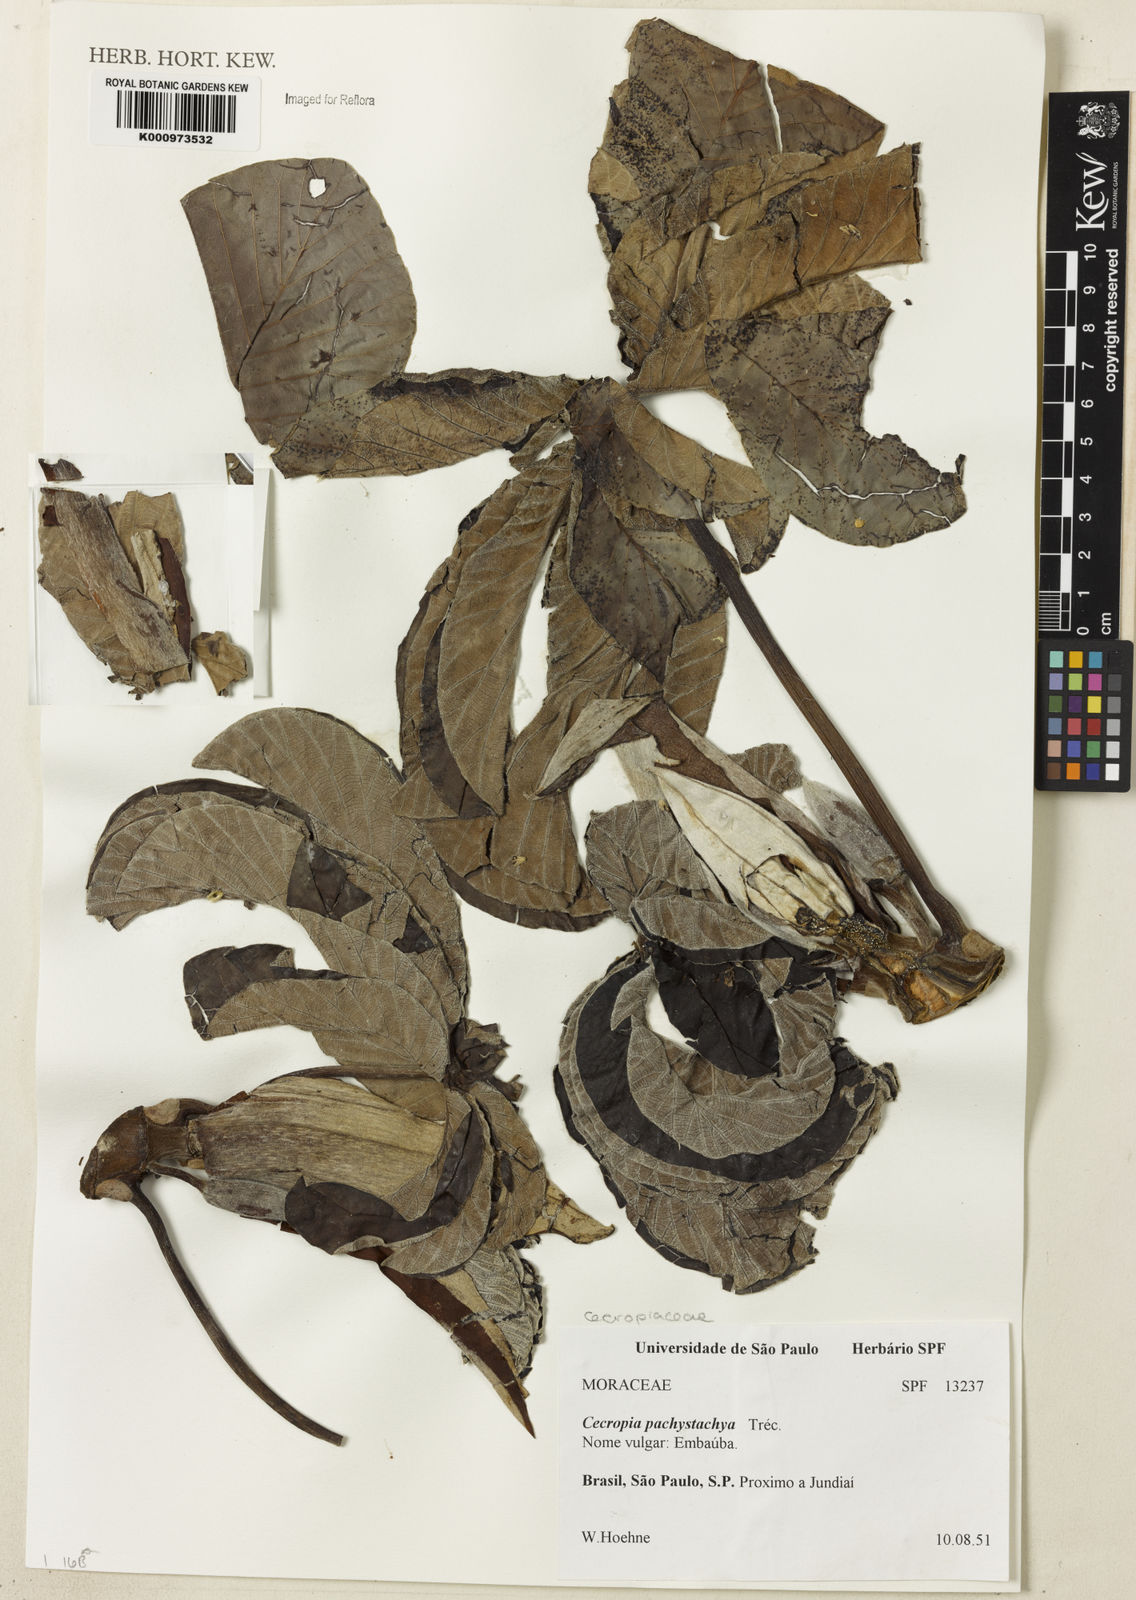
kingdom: Plantae
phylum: Tracheophyta
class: Magnoliopsida
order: Rosales
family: Urticaceae
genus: Cecropia
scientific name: Cecropia
